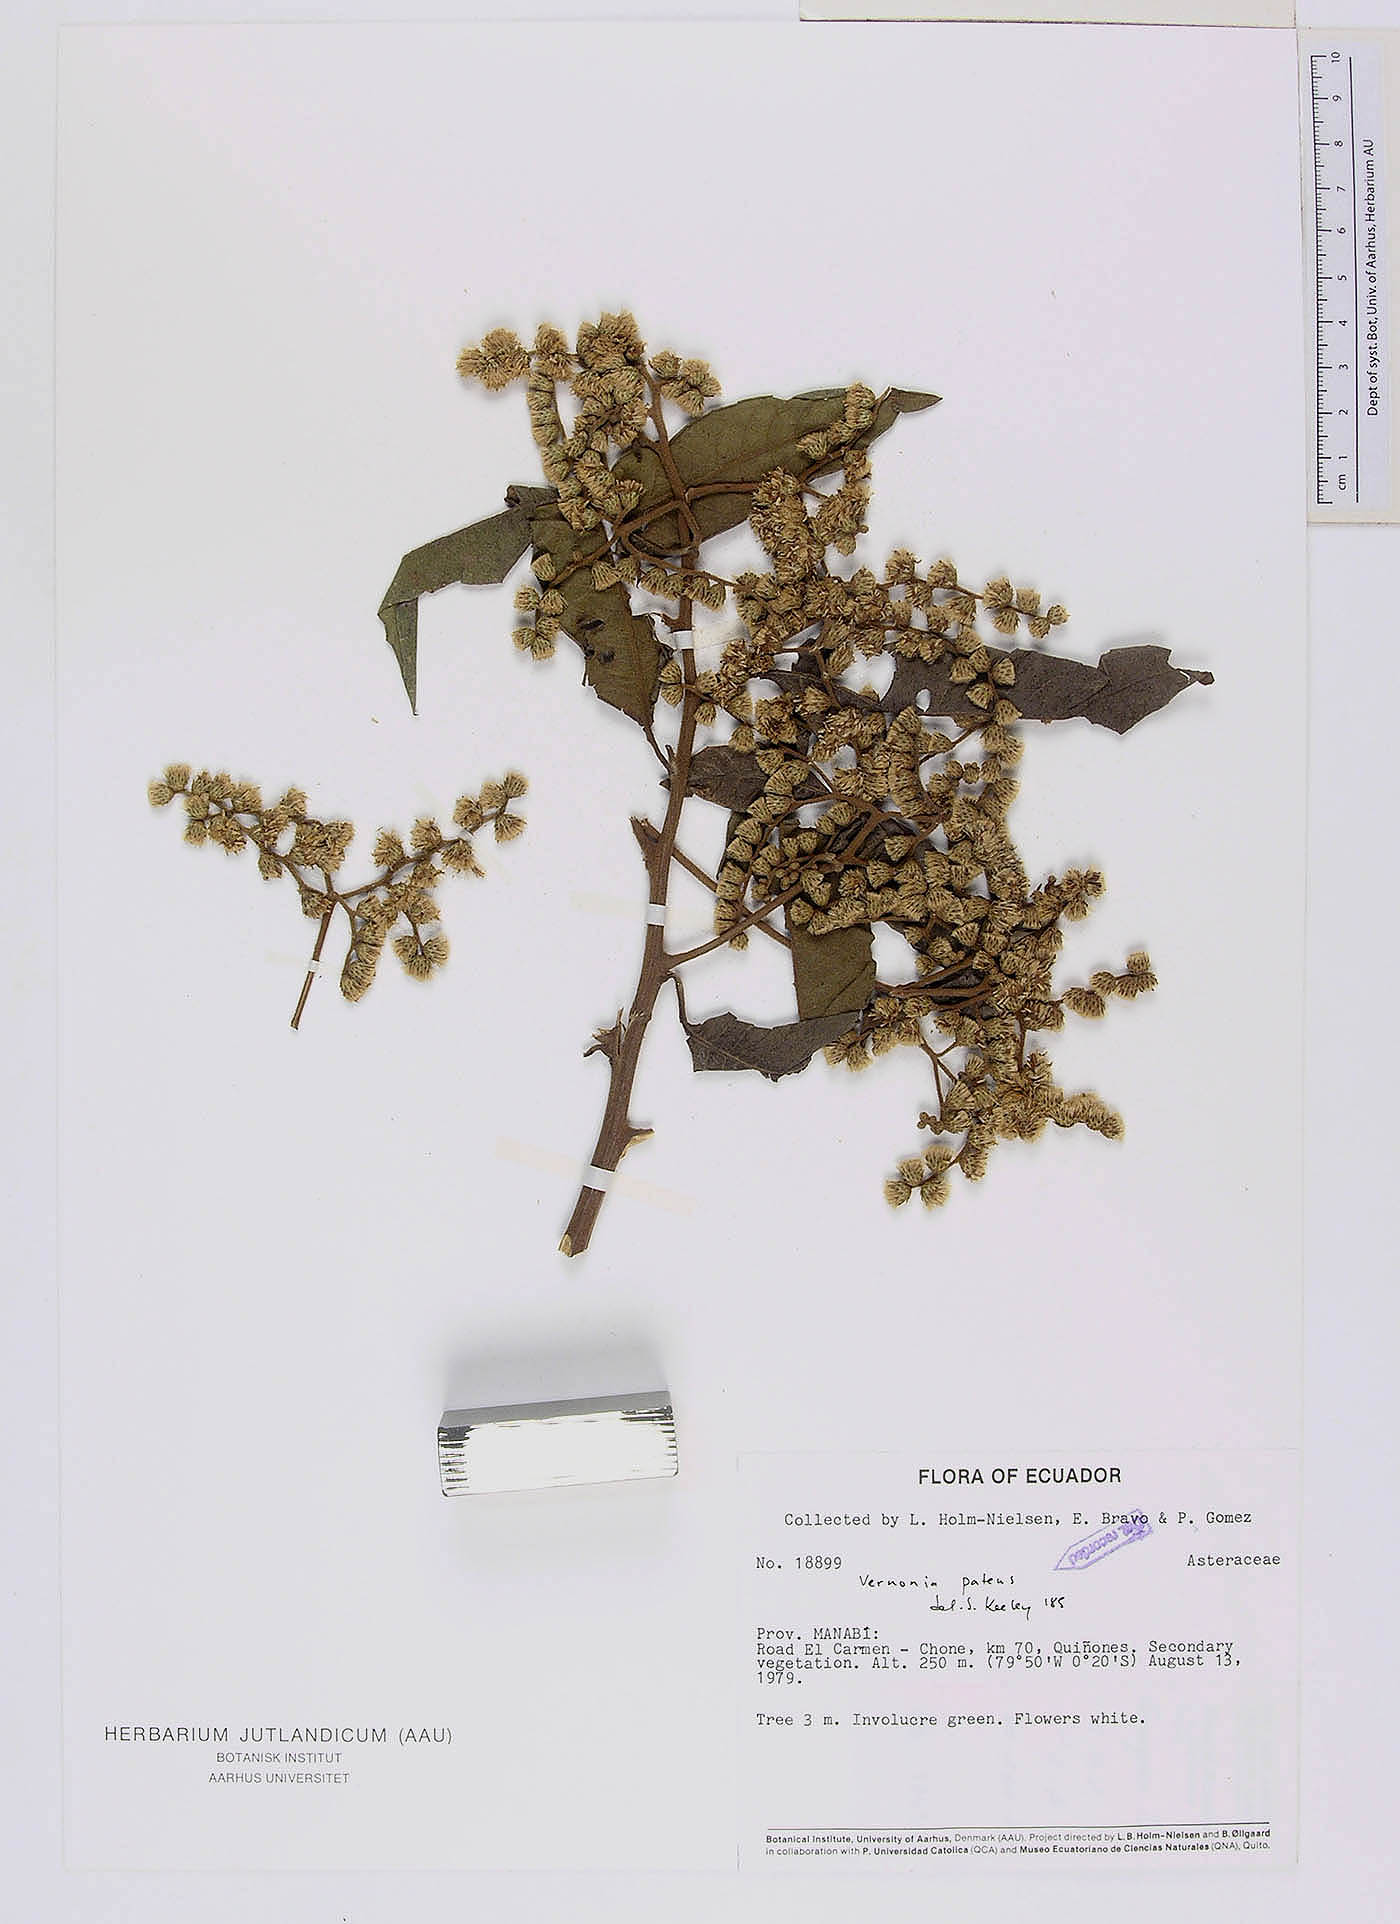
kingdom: Plantae
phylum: Tracheophyta
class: Magnoliopsida
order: Asterales
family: Asteraceae
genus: Vernonanthura
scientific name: Vernonanthura patens
